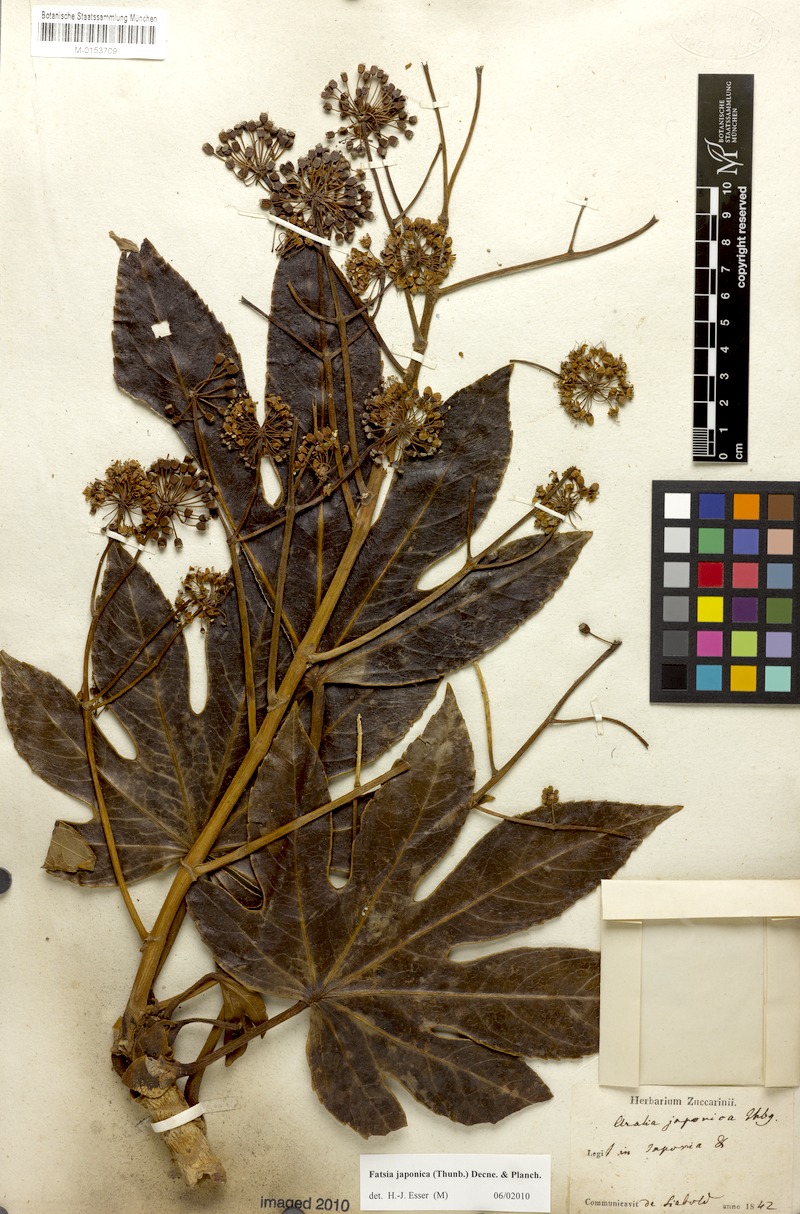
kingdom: Plantae
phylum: Tracheophyta
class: Magnoliopsida
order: Apiales
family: Araliaceae
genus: Fatsia
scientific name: Fatsia japonica
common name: Fatsia
